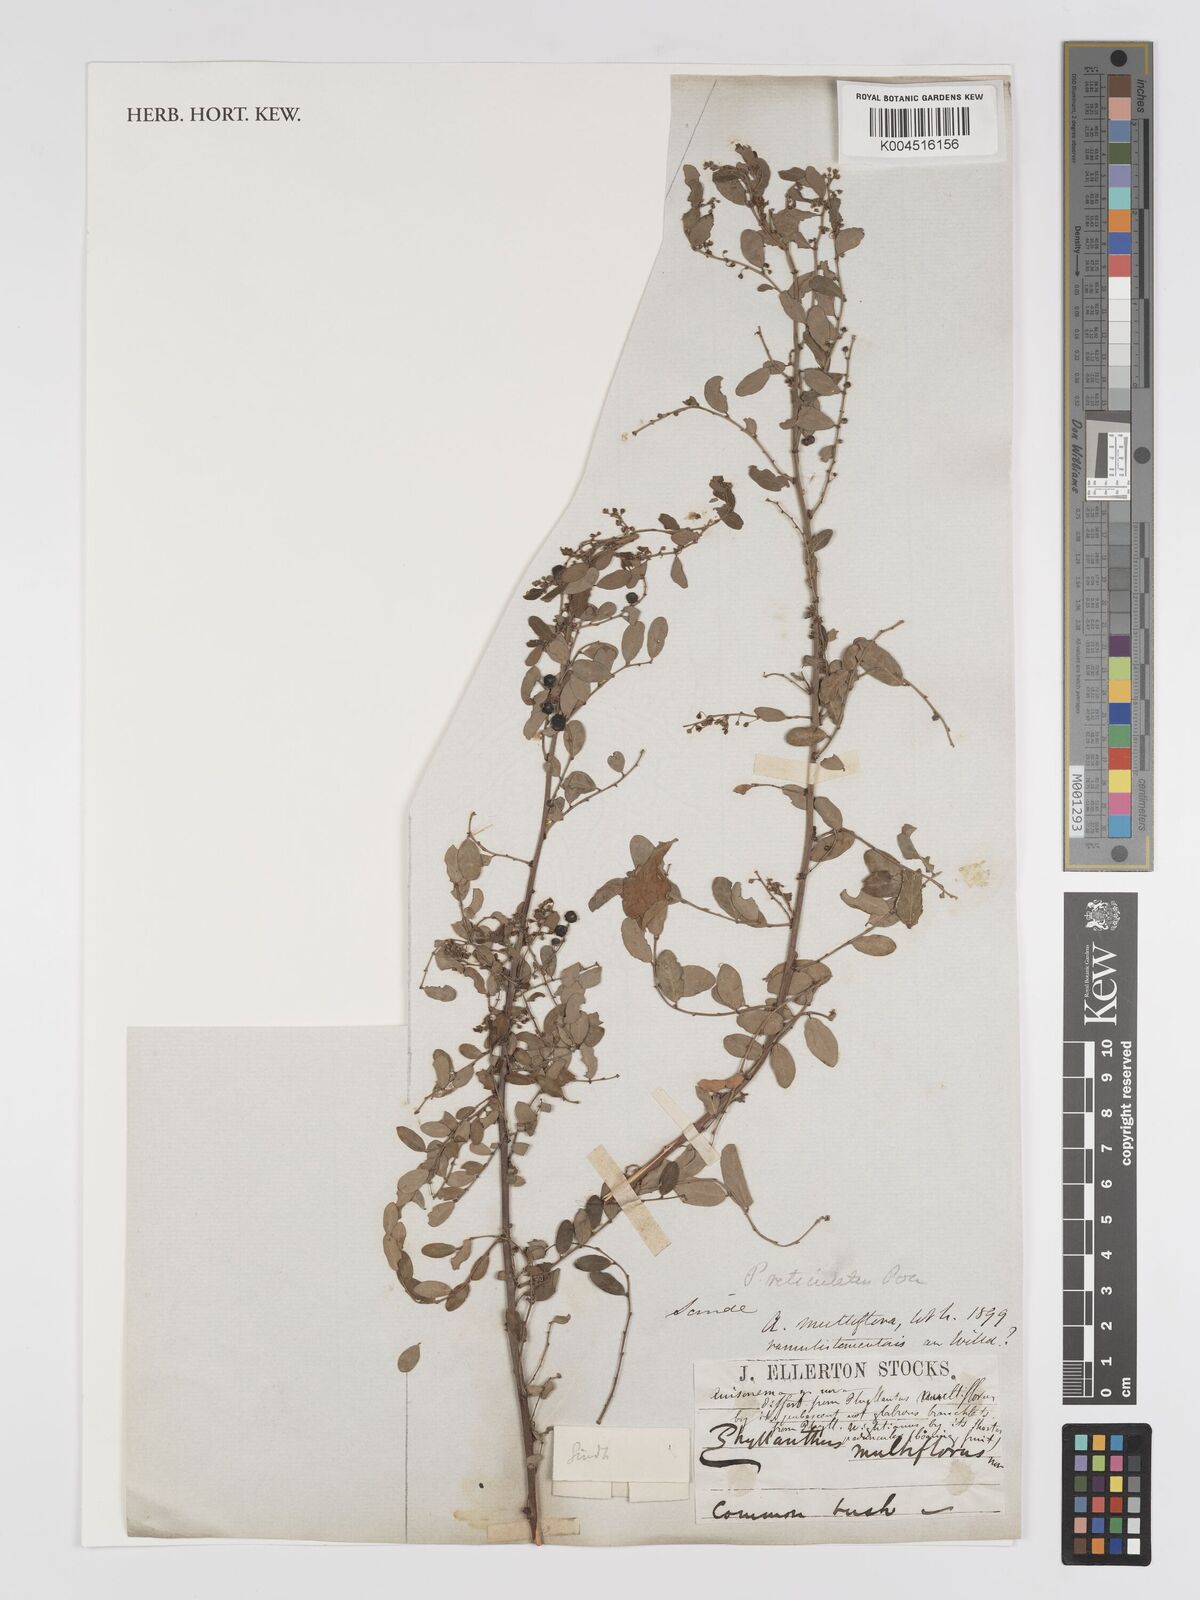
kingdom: Plantae
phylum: Tracheophyta
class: Magnoliopsida
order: Malpighiales
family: Phyllanthaceae
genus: Phyllanthus
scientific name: Phyllanthus reticulatus
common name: Potato bush
